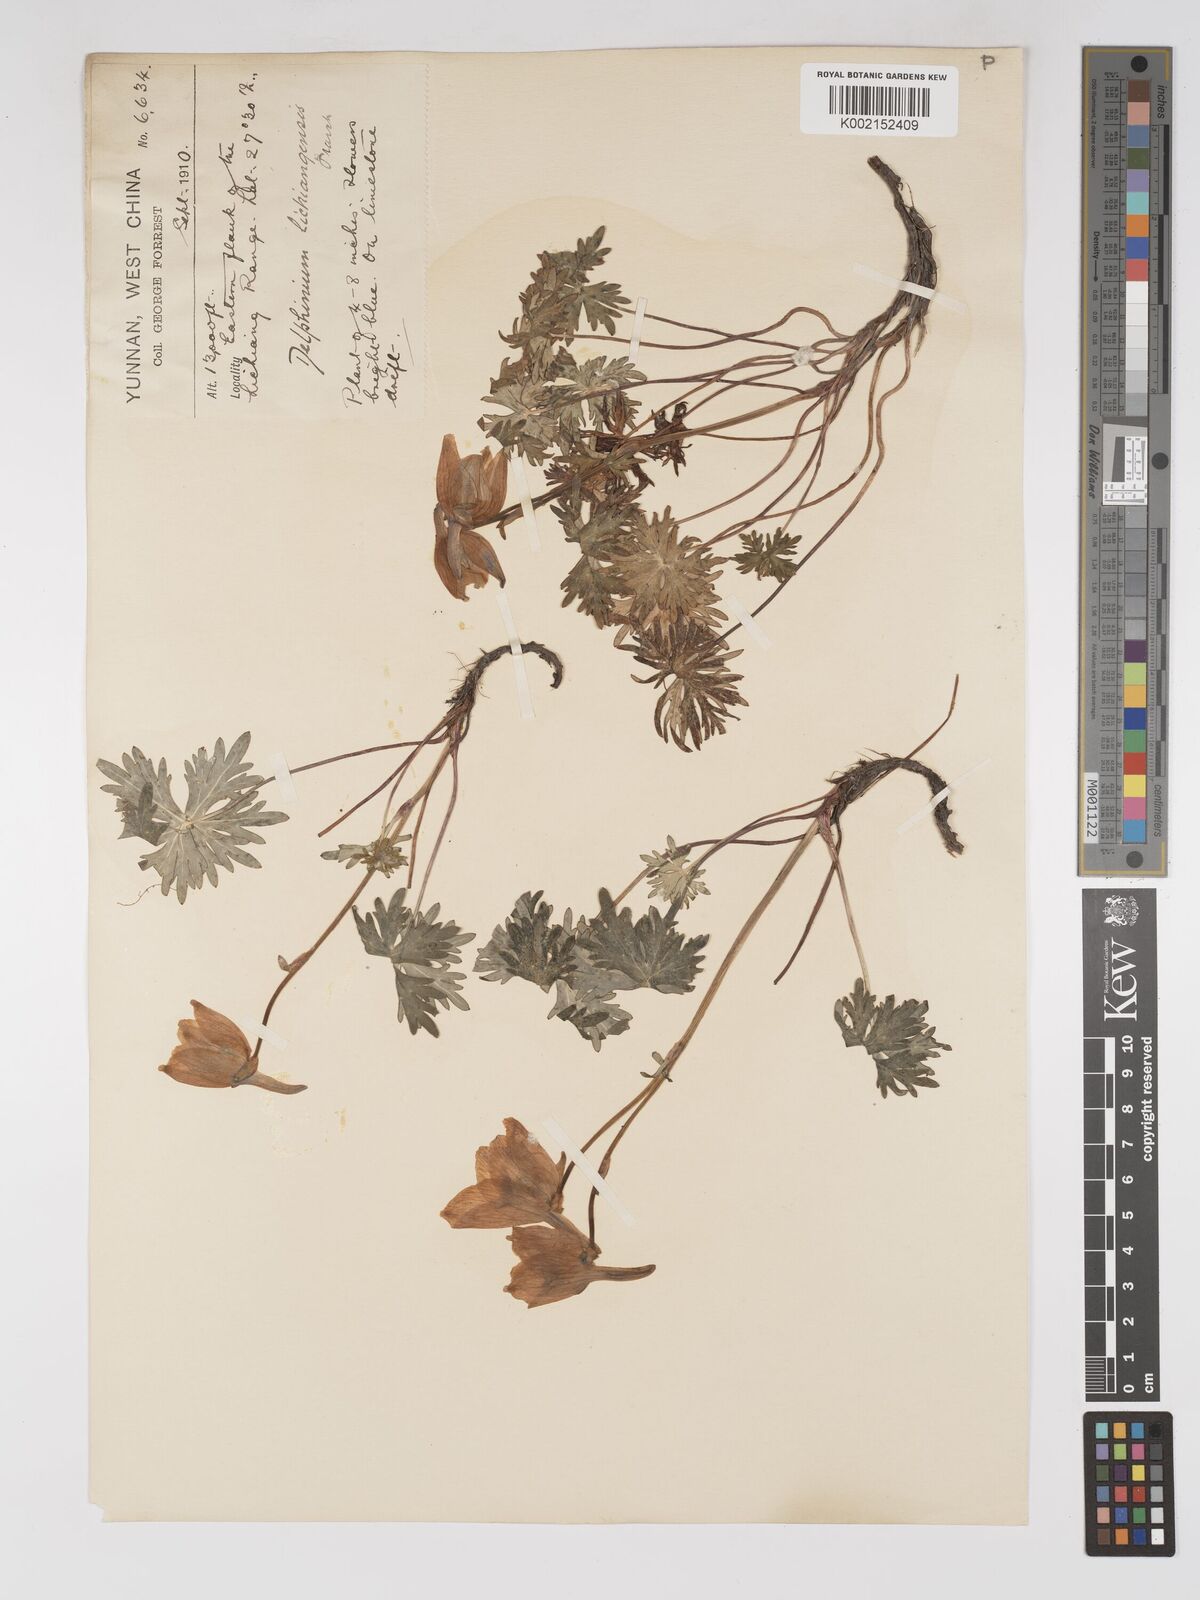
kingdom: Plantae
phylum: Tracheophyta
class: Magnoliopsida
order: Ranunculales
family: Ranunculaceae
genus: Delphinium
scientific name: Delphinium likiangense
